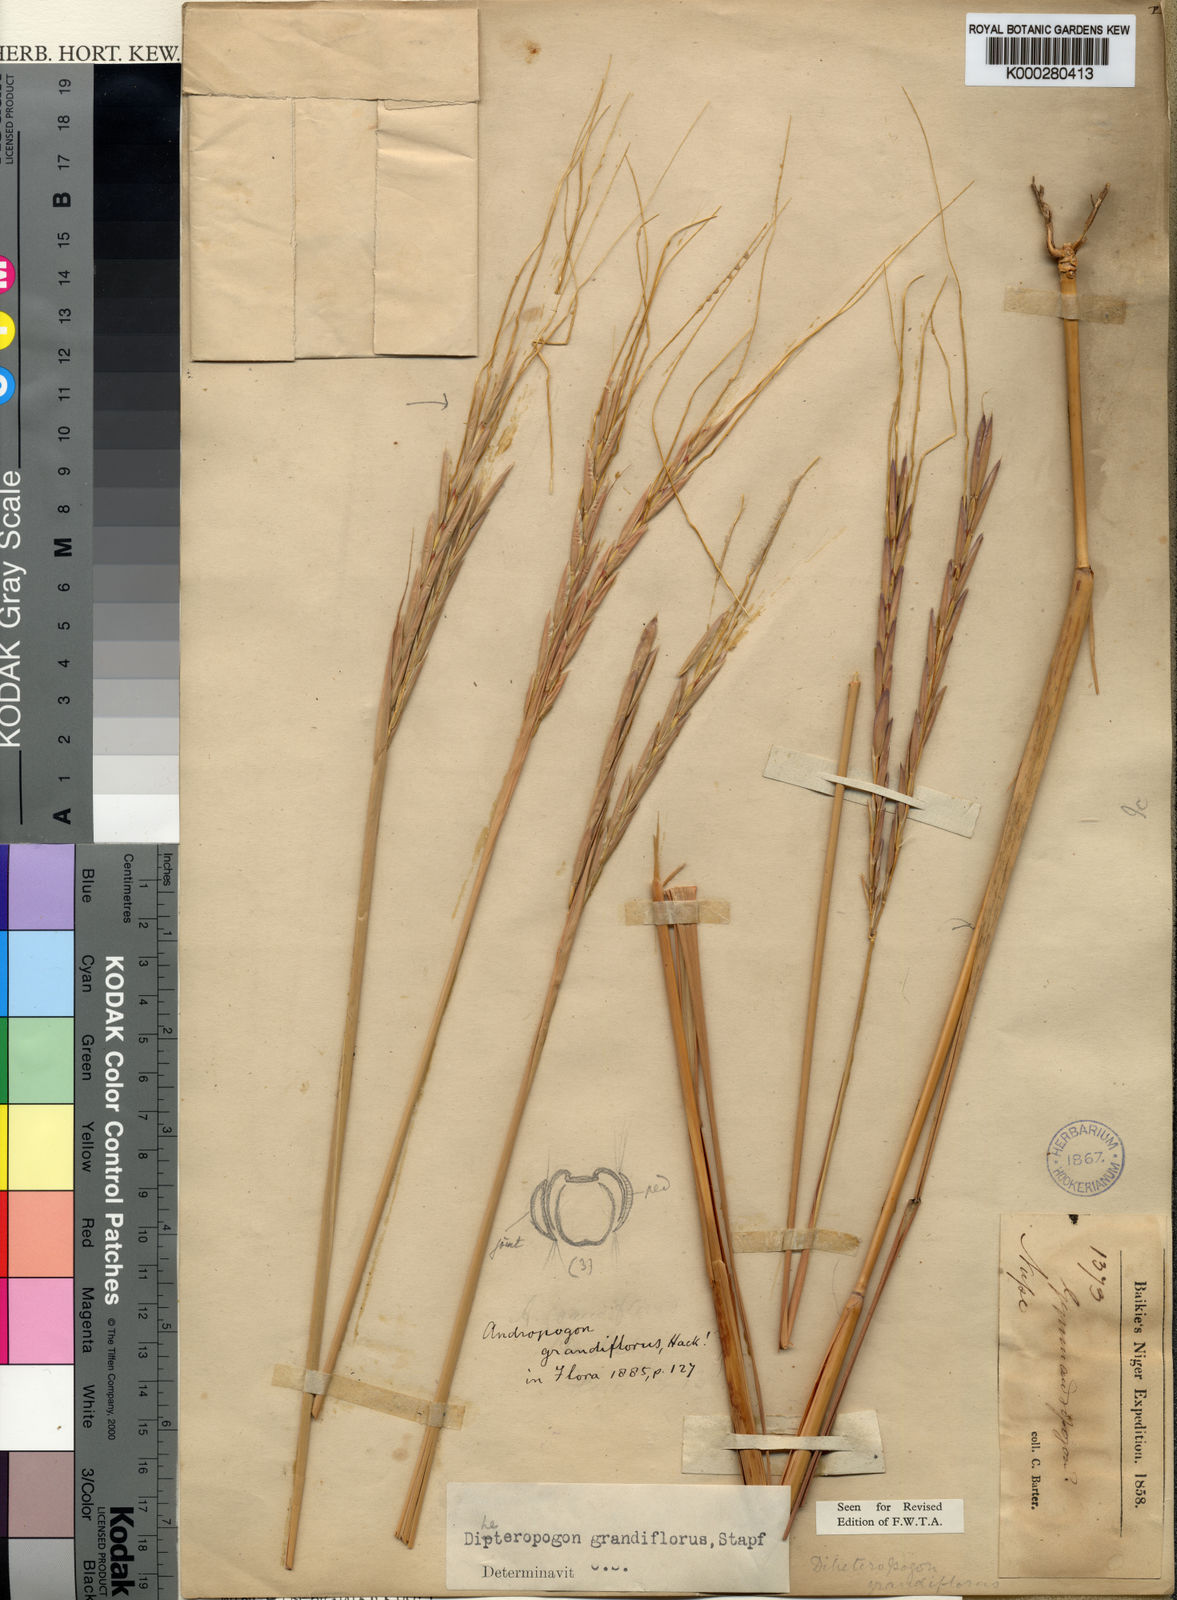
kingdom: Plantae
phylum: Tracheophyta
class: Liliopsida
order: Poales
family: Poaceae
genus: Diheteropogon
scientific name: Diheteropogon filifolius
